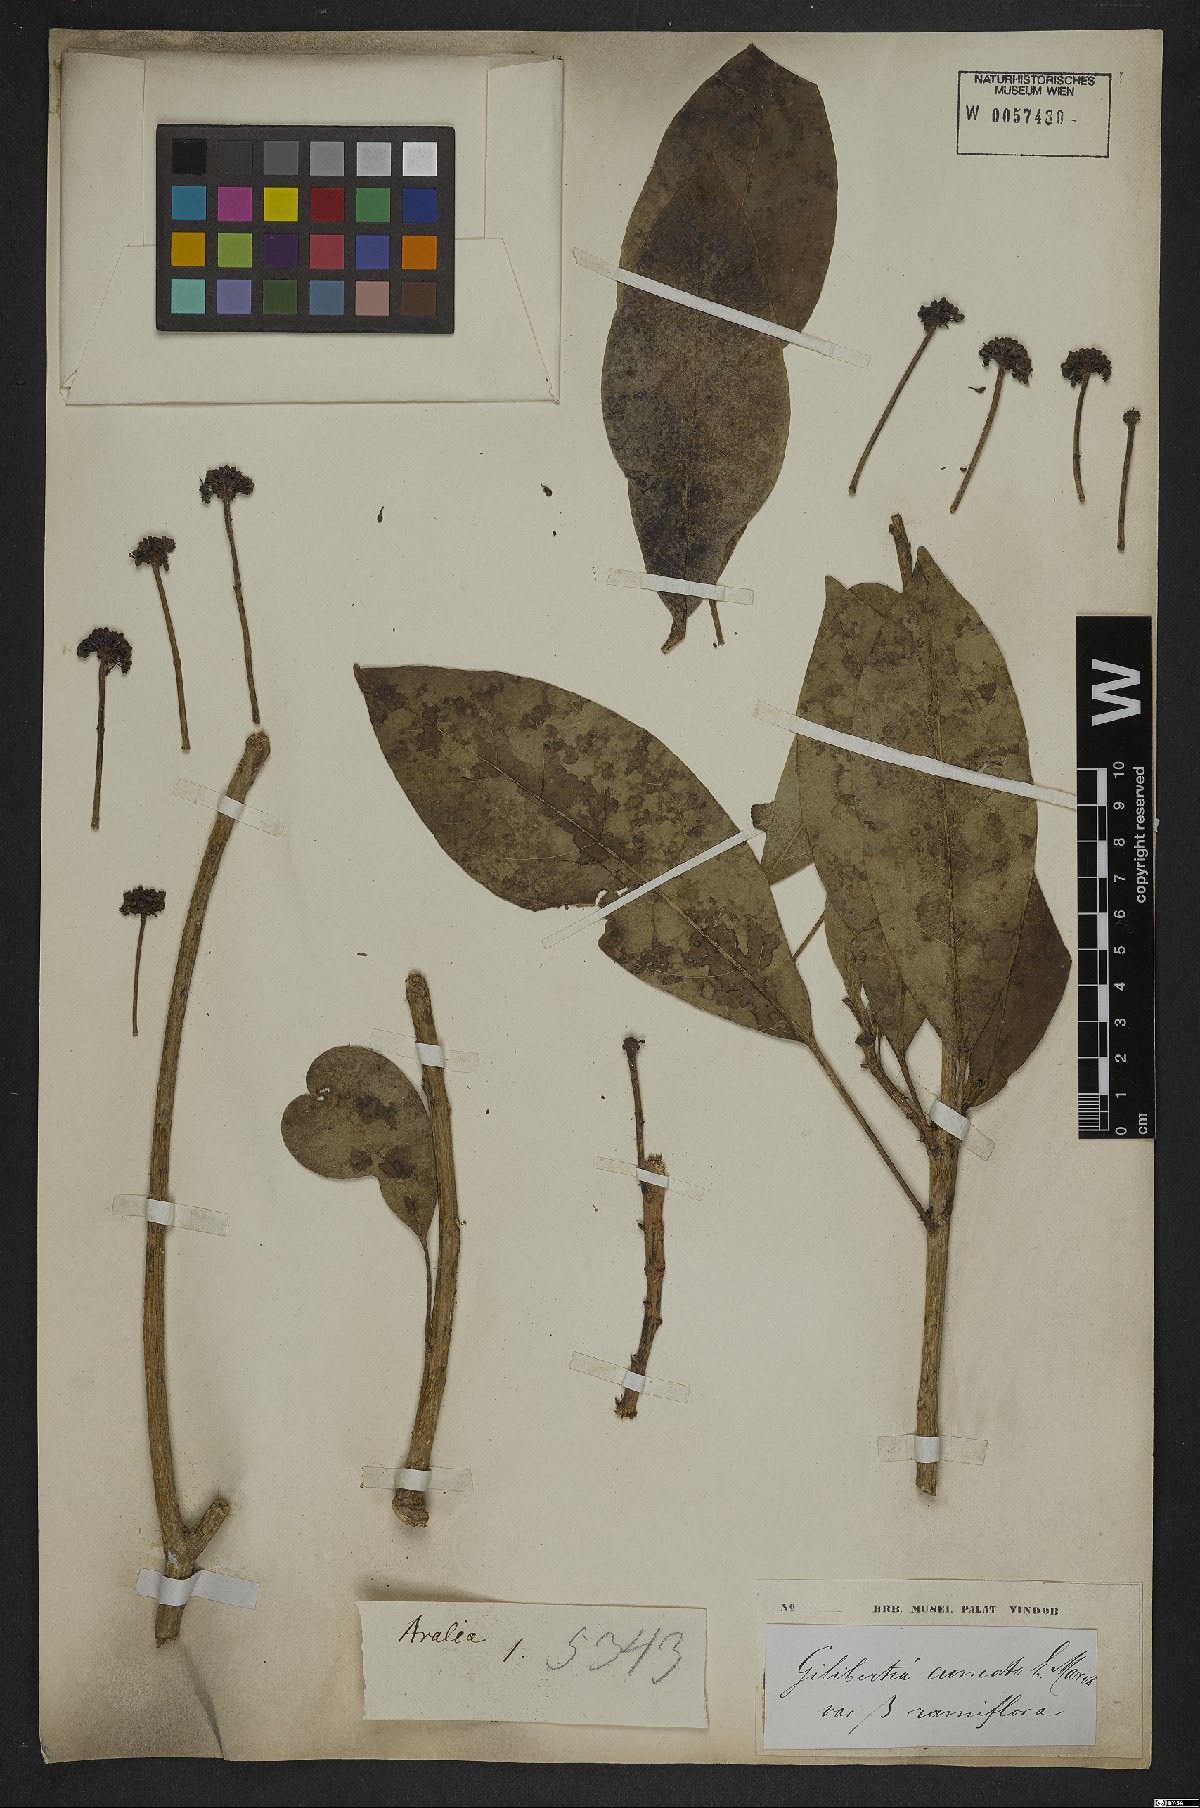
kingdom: Plantae
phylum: Tracheophyta
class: Magnoliopsida
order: Apiales
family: Araliaceae
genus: Dendropanax
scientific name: Dendropanax cuneatus
